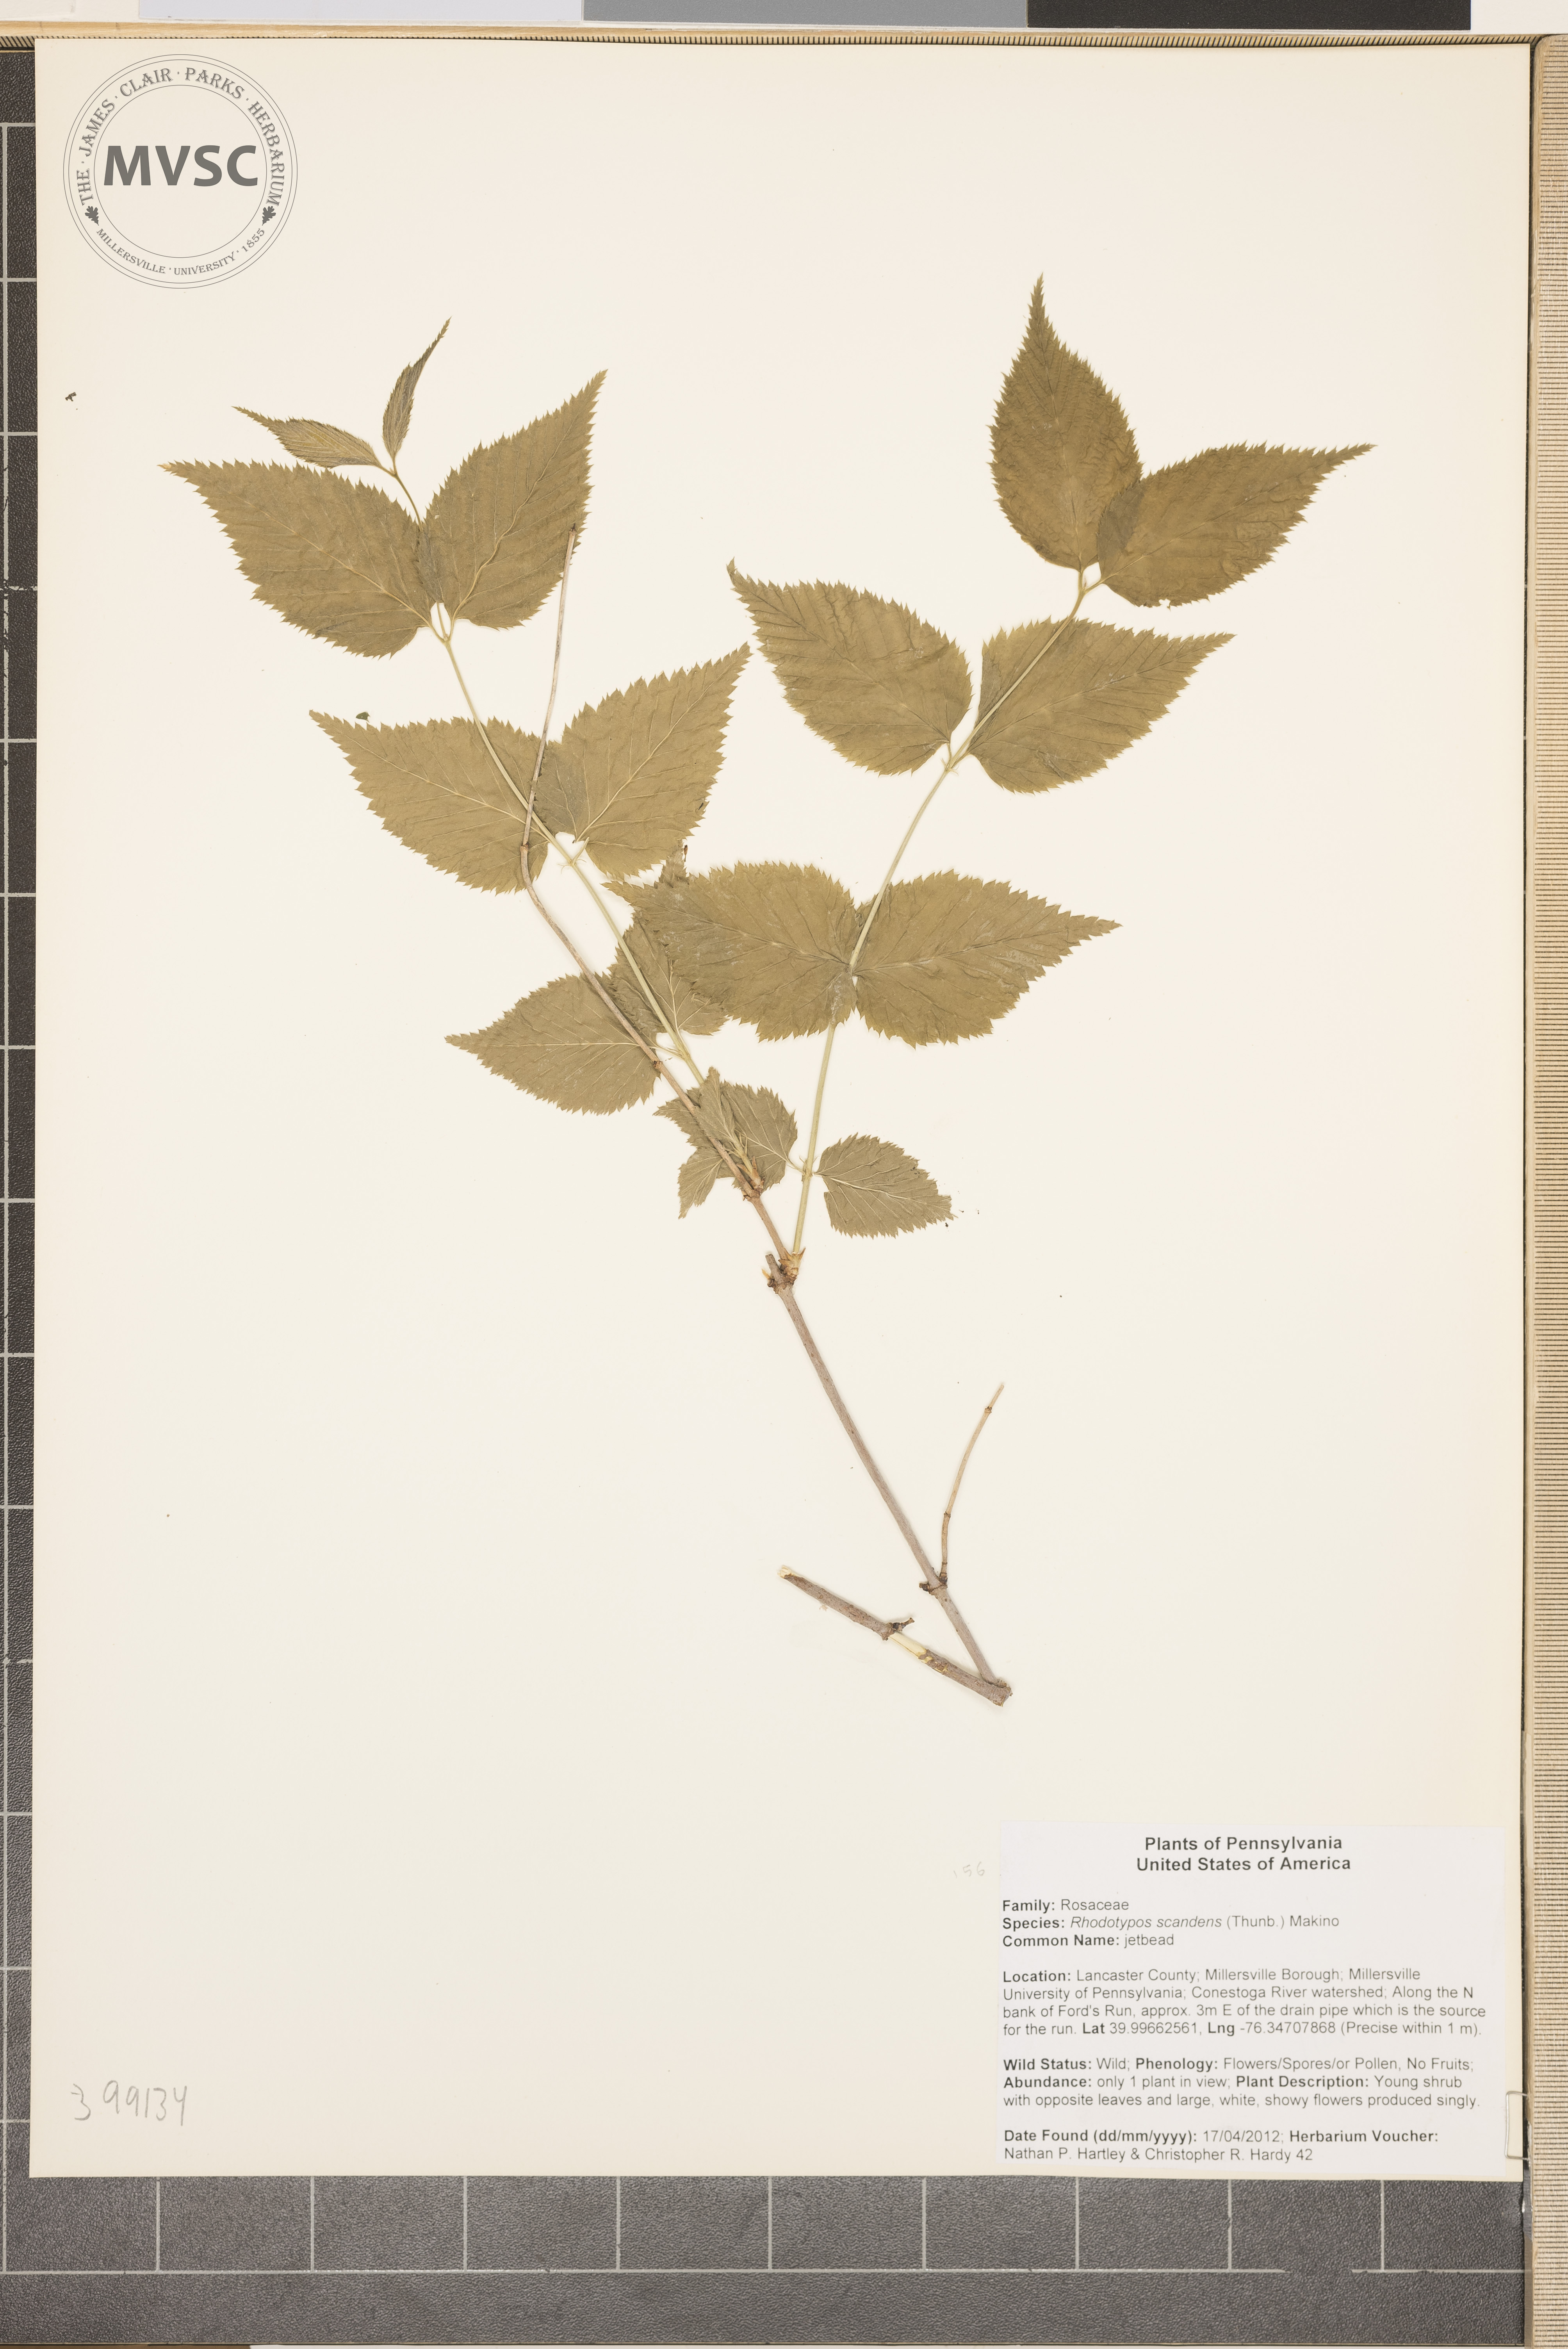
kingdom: Plantae
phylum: Tracheophyta
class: Magnoliopsida
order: Rosales
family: Rosaceae
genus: Rhodotypos
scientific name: Rhodotypos scandens
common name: Jetbead
